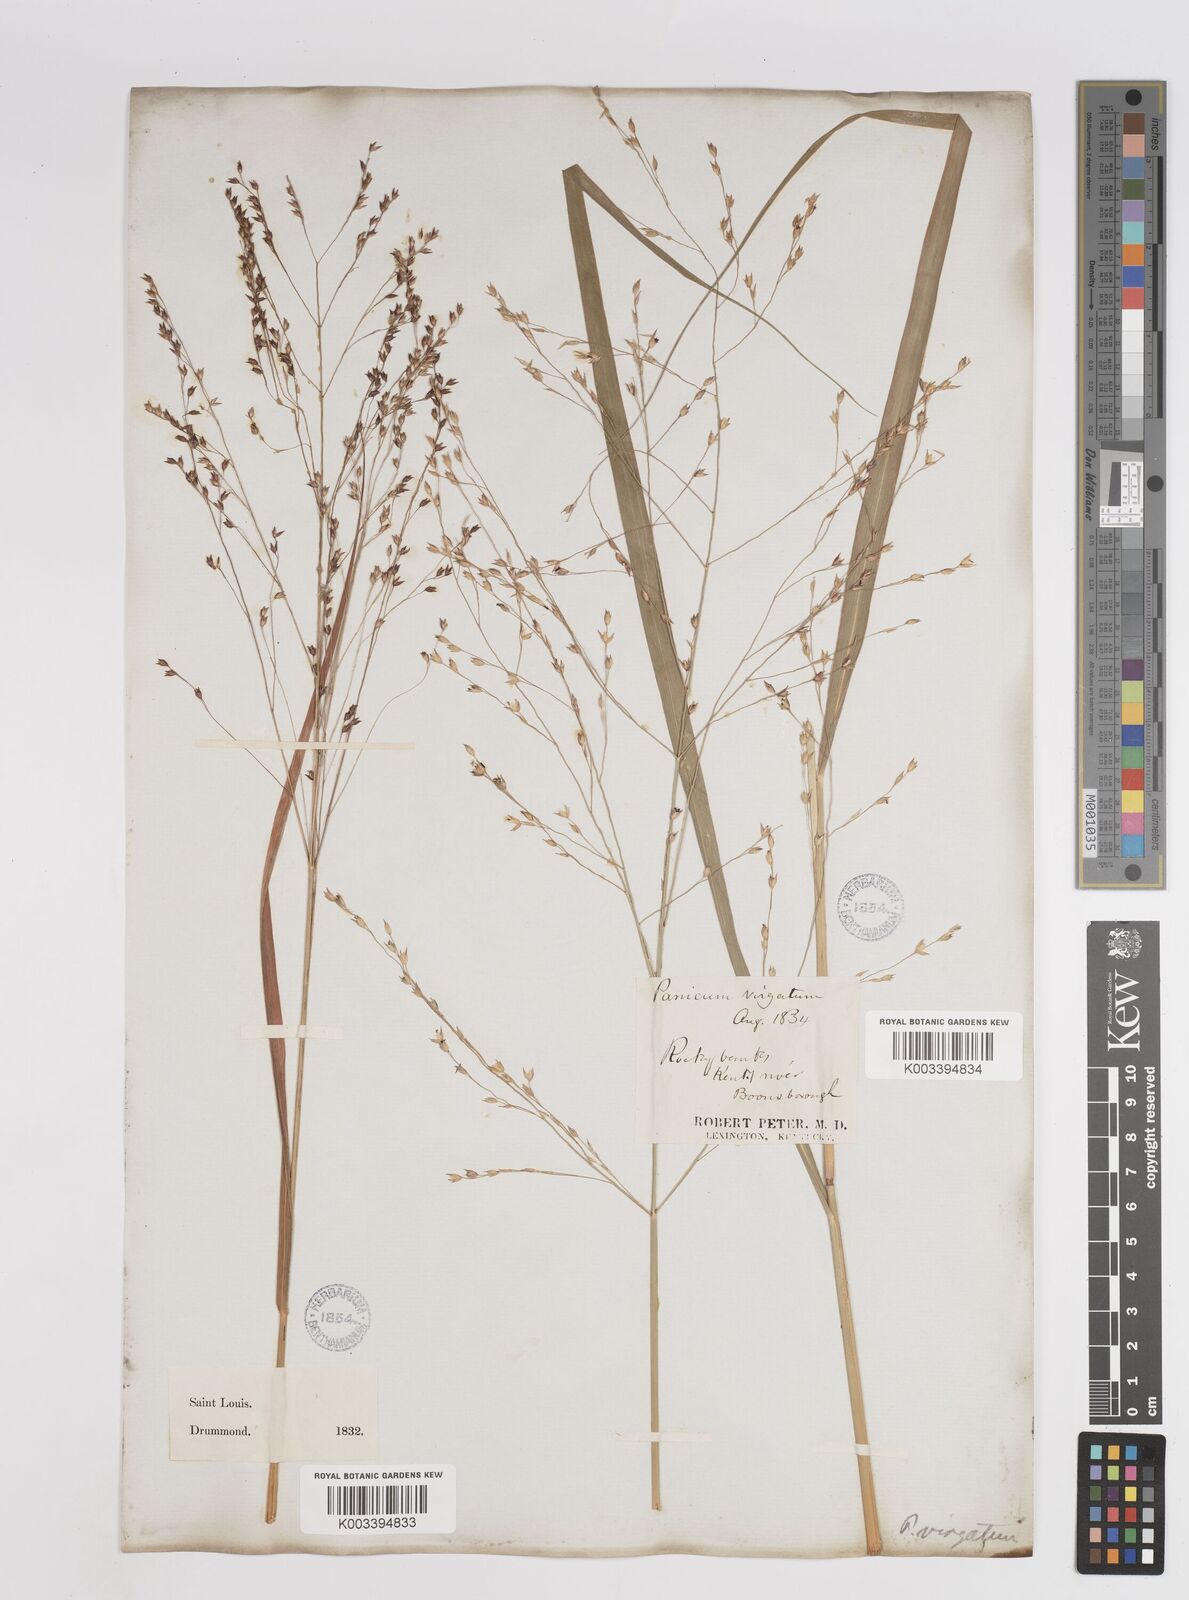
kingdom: Plantae
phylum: Tracheophyta
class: Liliopsida
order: Poales
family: Poaceae
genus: Panicum
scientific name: Panicum virgatum
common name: Switchgrass
